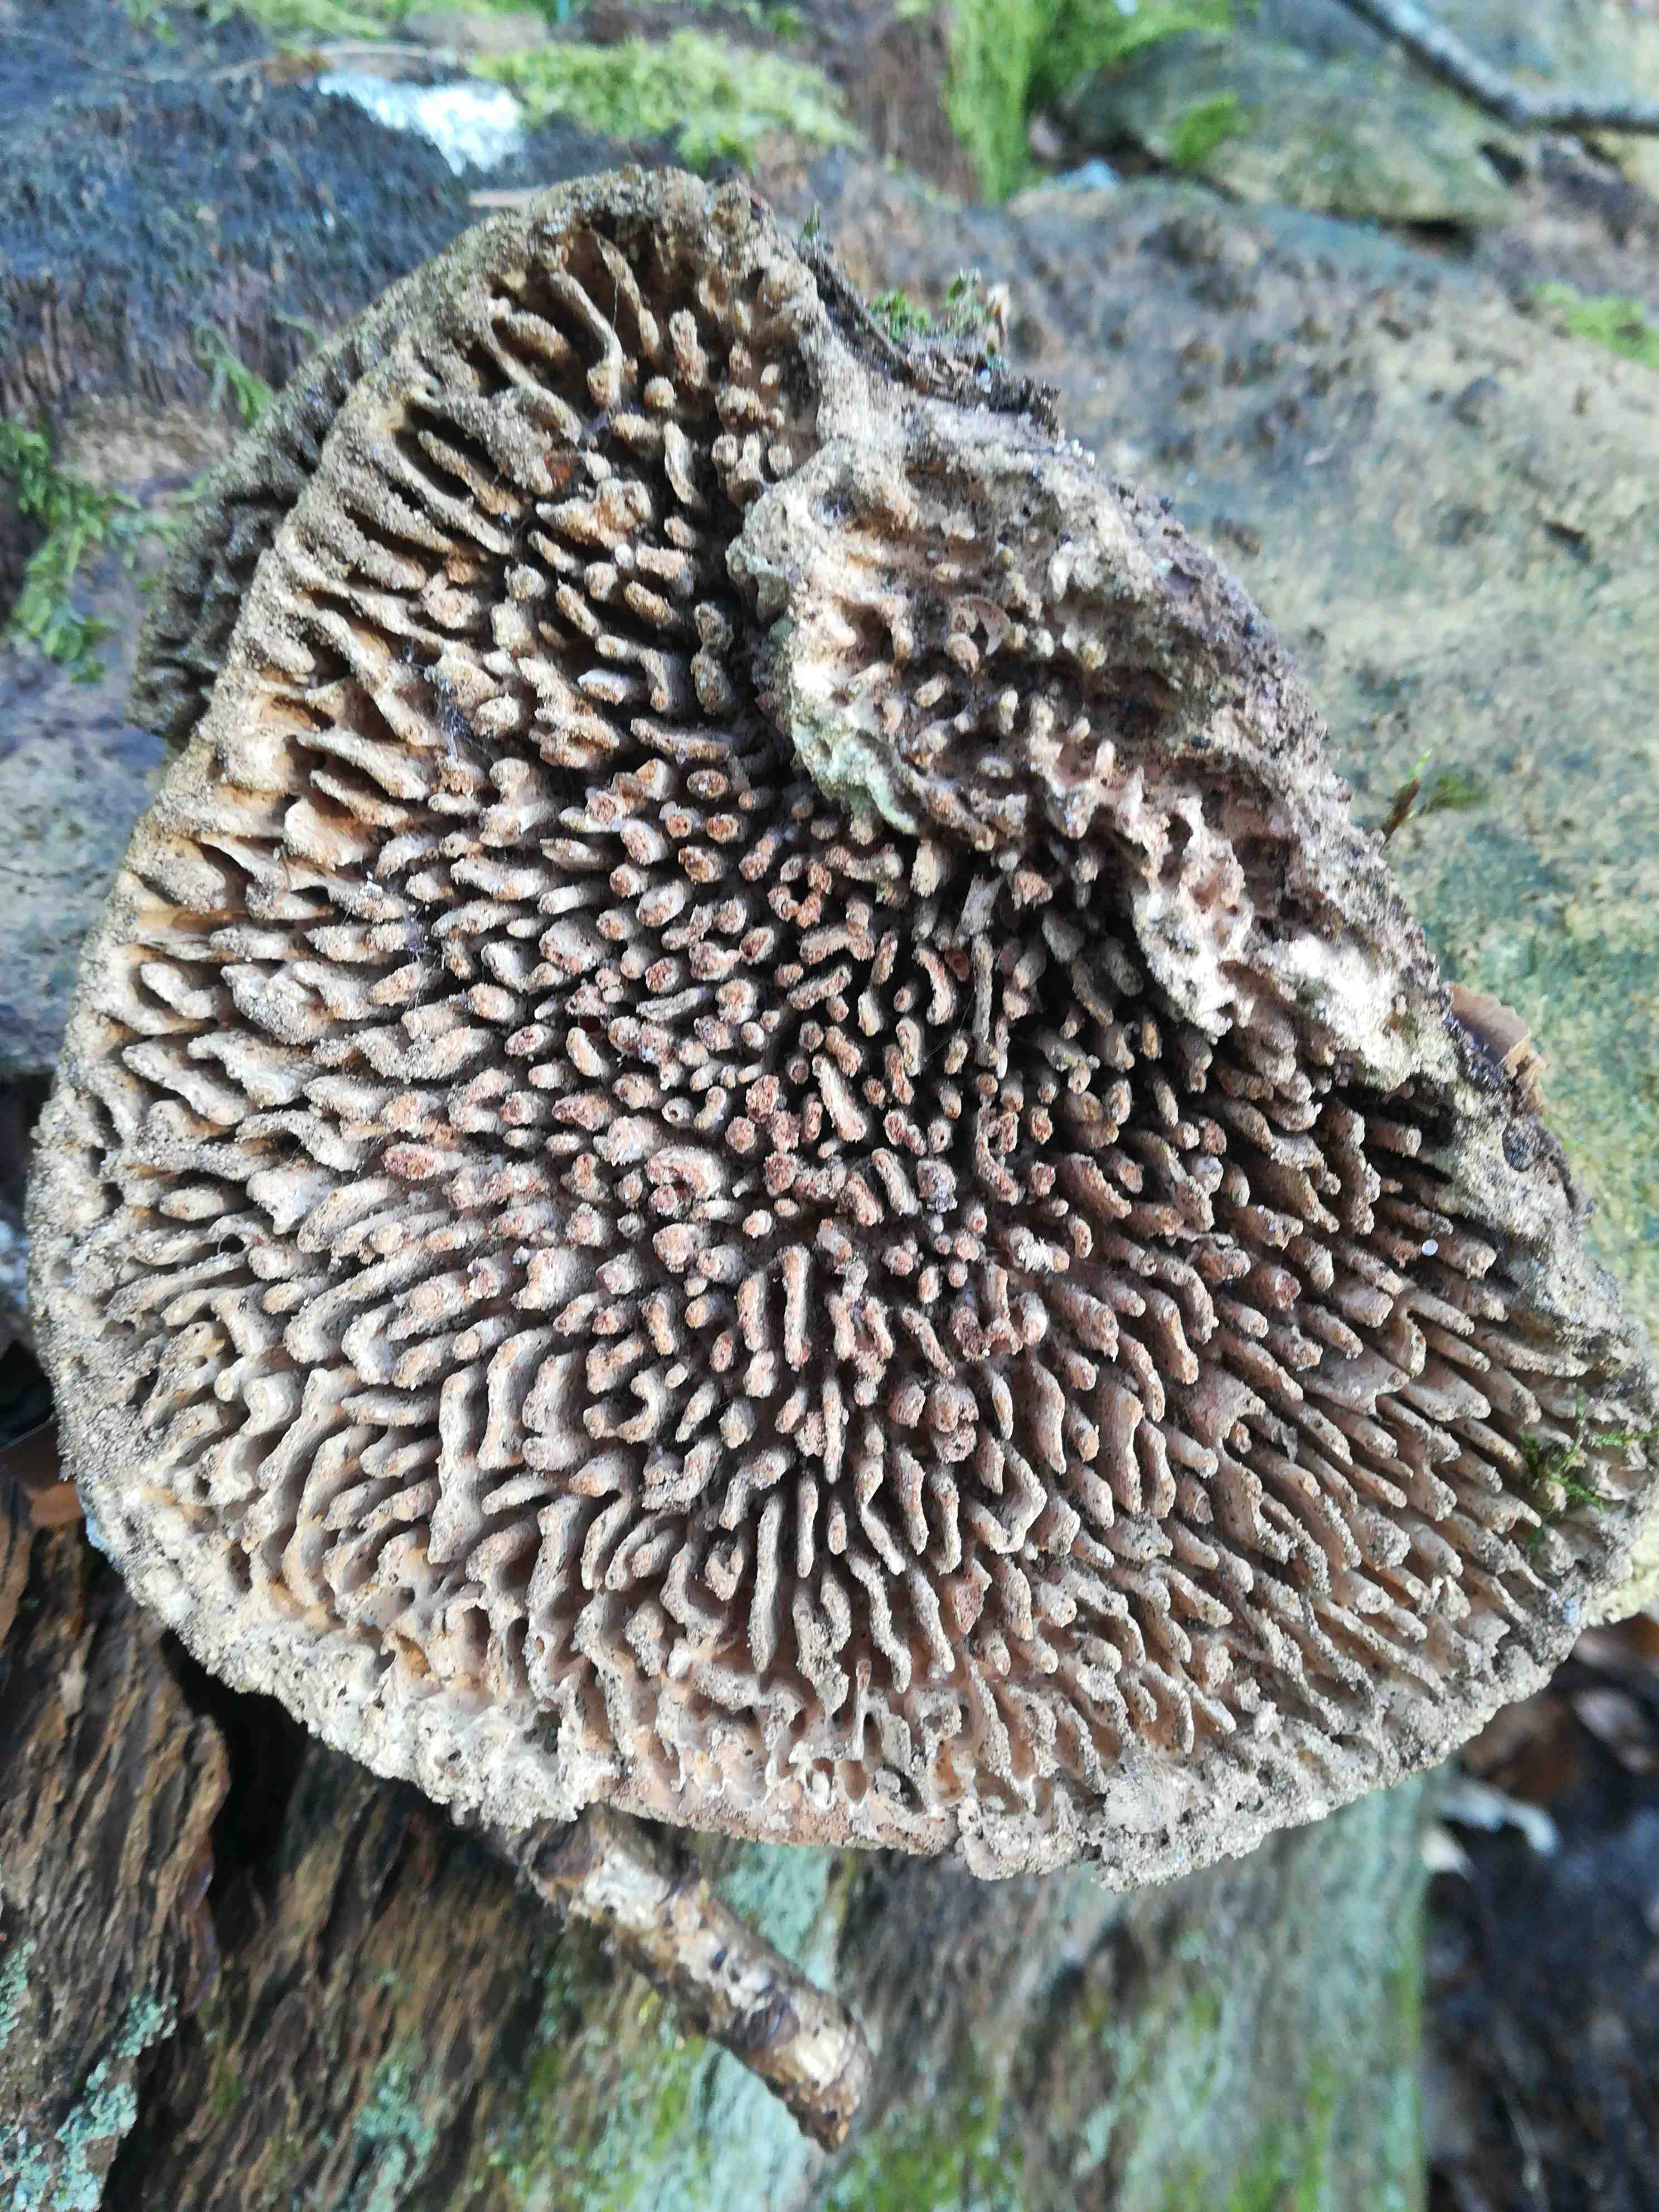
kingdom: Fungi
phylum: Basidiomycota
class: Agaricomycetes
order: Polyporales
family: Fomitopsidaceae
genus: Daedalea
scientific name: Daedalea quercina
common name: ege-labyrintsvamp
